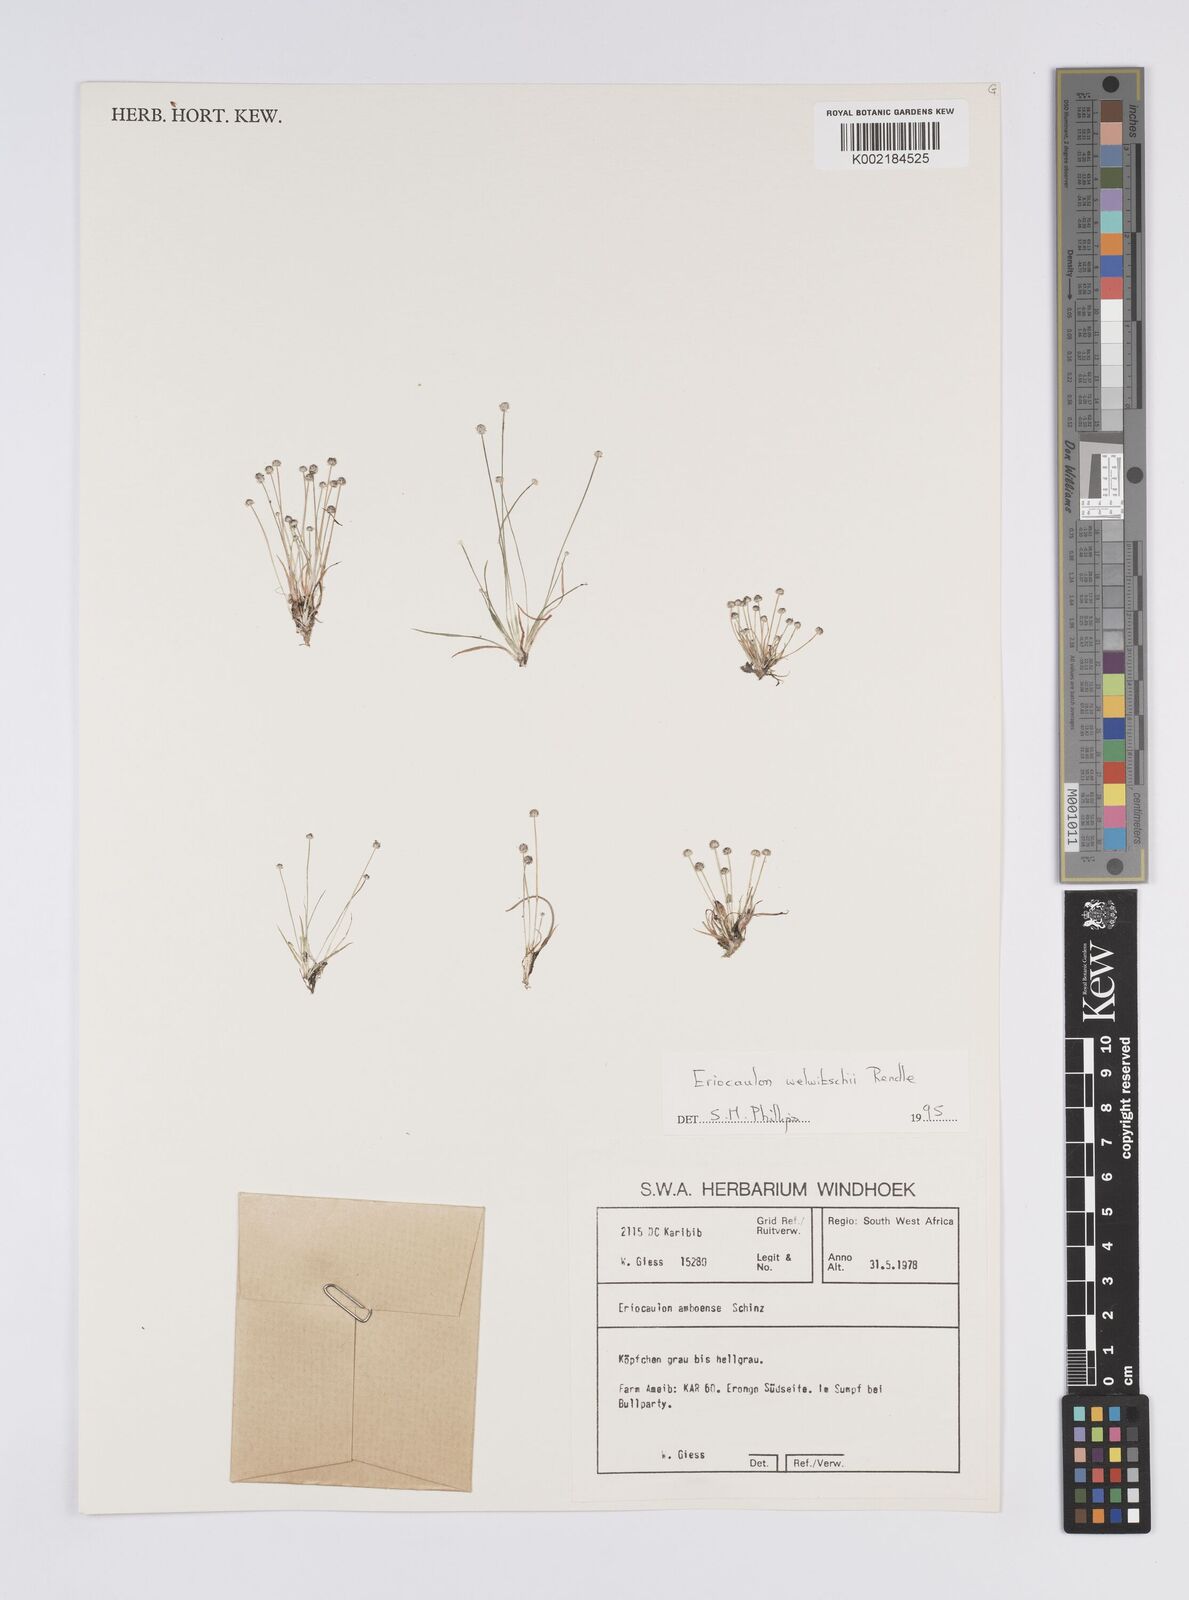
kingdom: Plantae
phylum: Tracheophyta
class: Liliopsida
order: Poales
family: Eriocaulaceae
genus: Eriocaulon
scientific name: Eriocaulon welwitschii
